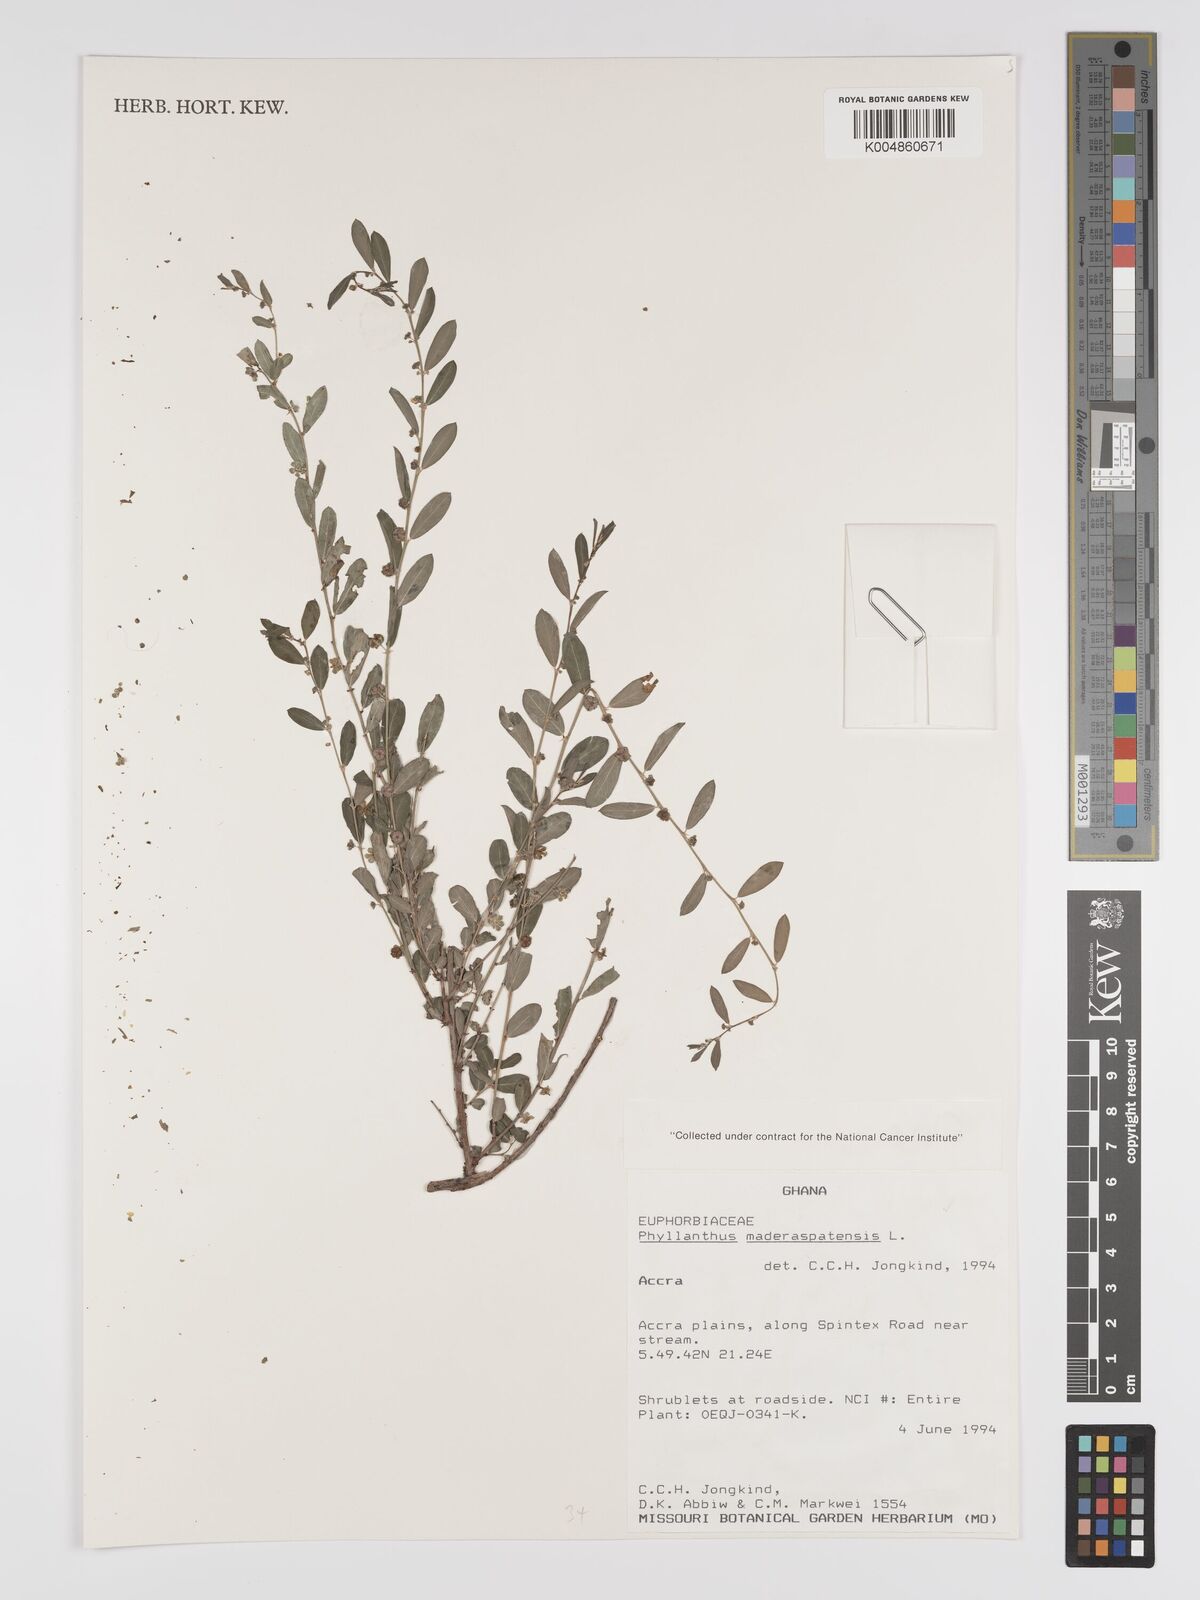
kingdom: Plantae
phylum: Tracheophyta
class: Magnoliopsida
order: Malpighiales
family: Phyllanthaceae
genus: Phyllanthus
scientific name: Phyllanthus
